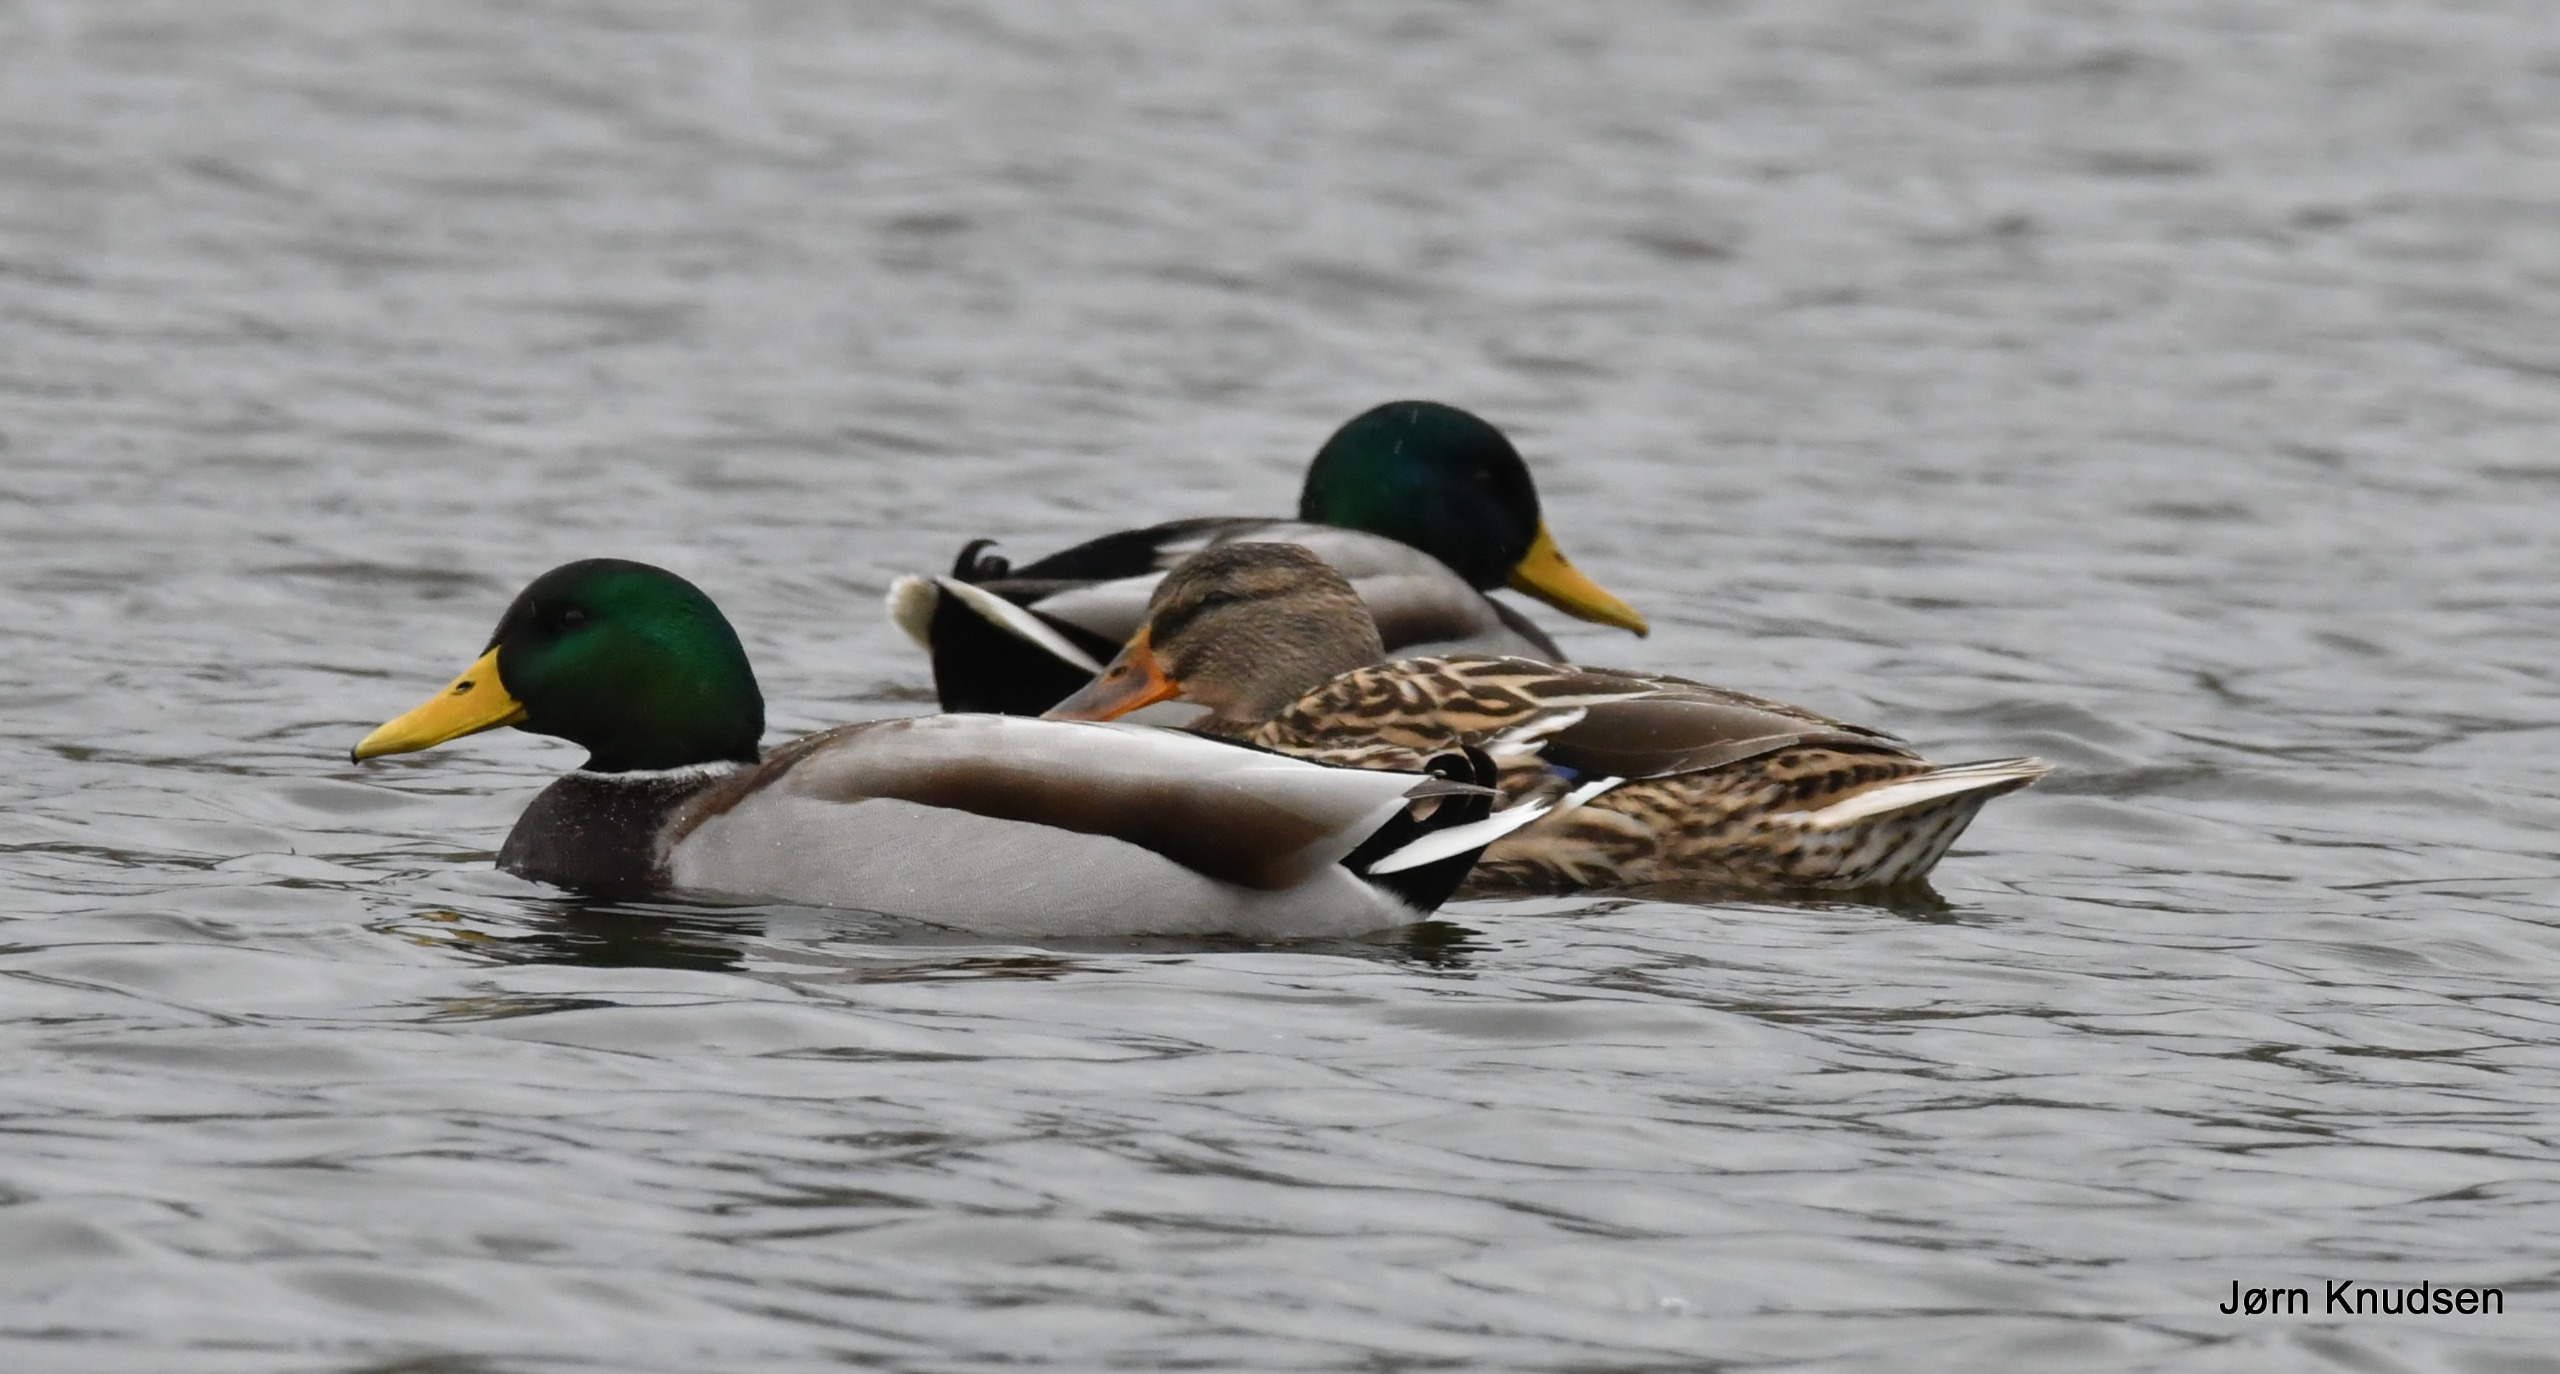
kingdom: Animalia
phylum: Chordata
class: Aves
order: Anseriformes
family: Anatidae
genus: Anas
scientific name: Anas platyrhynchos
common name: Gråand
